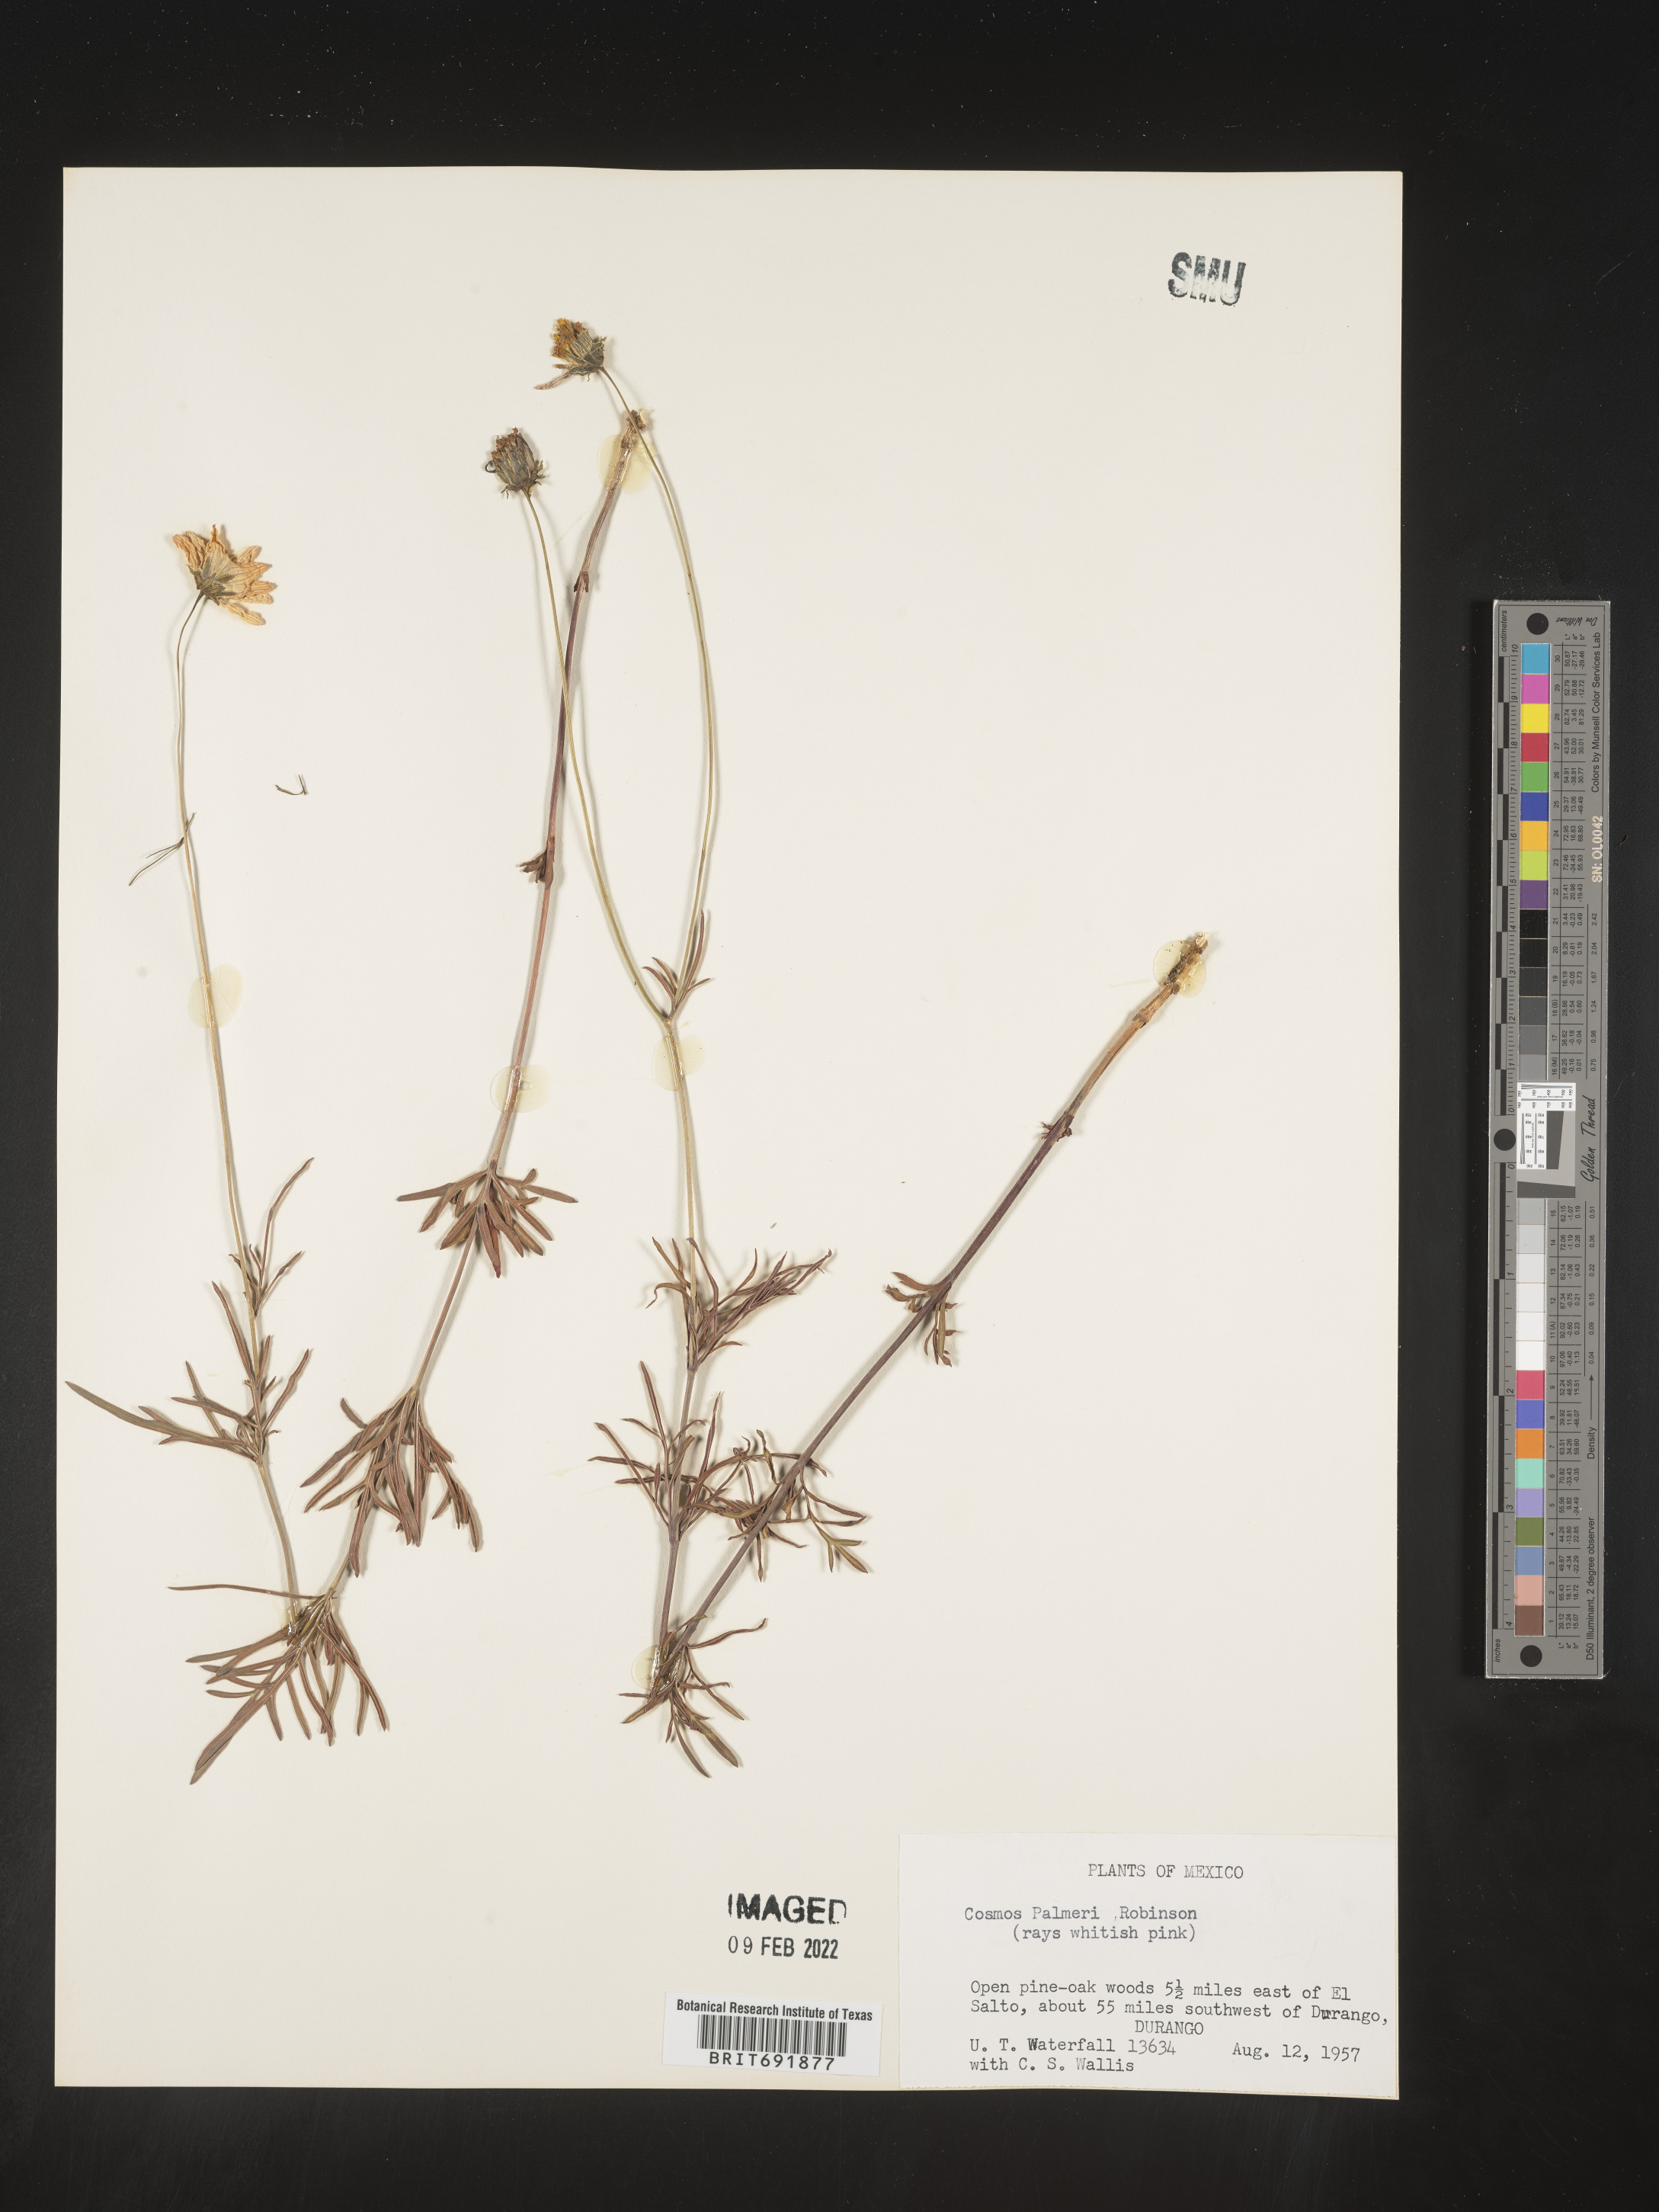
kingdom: Plantae
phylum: Tracheophyta
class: Magnoliopsida
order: Asterales
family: Asteraceae
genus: Cosmos
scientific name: Cosmos
